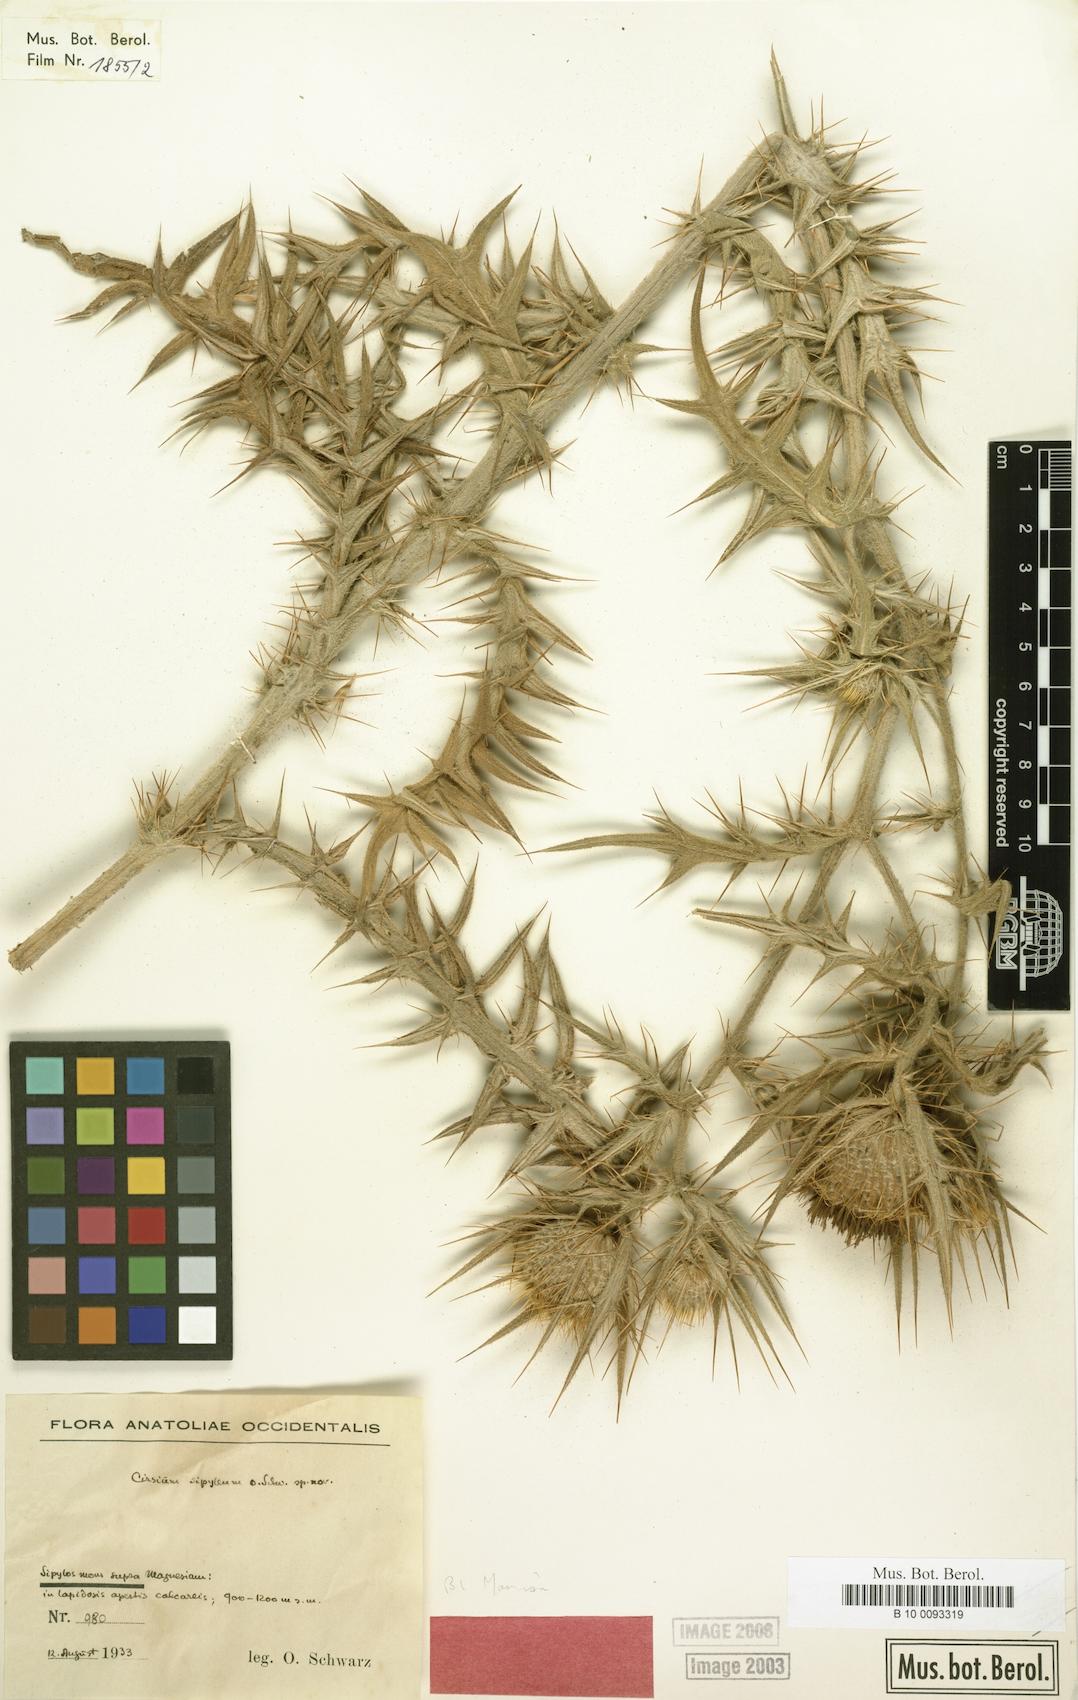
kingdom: Plantae
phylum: Tracheophyta
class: Magnoliopsida
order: Asterales
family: Asteraceae
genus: Lophiolepis
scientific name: Lophiolepis sipylea
